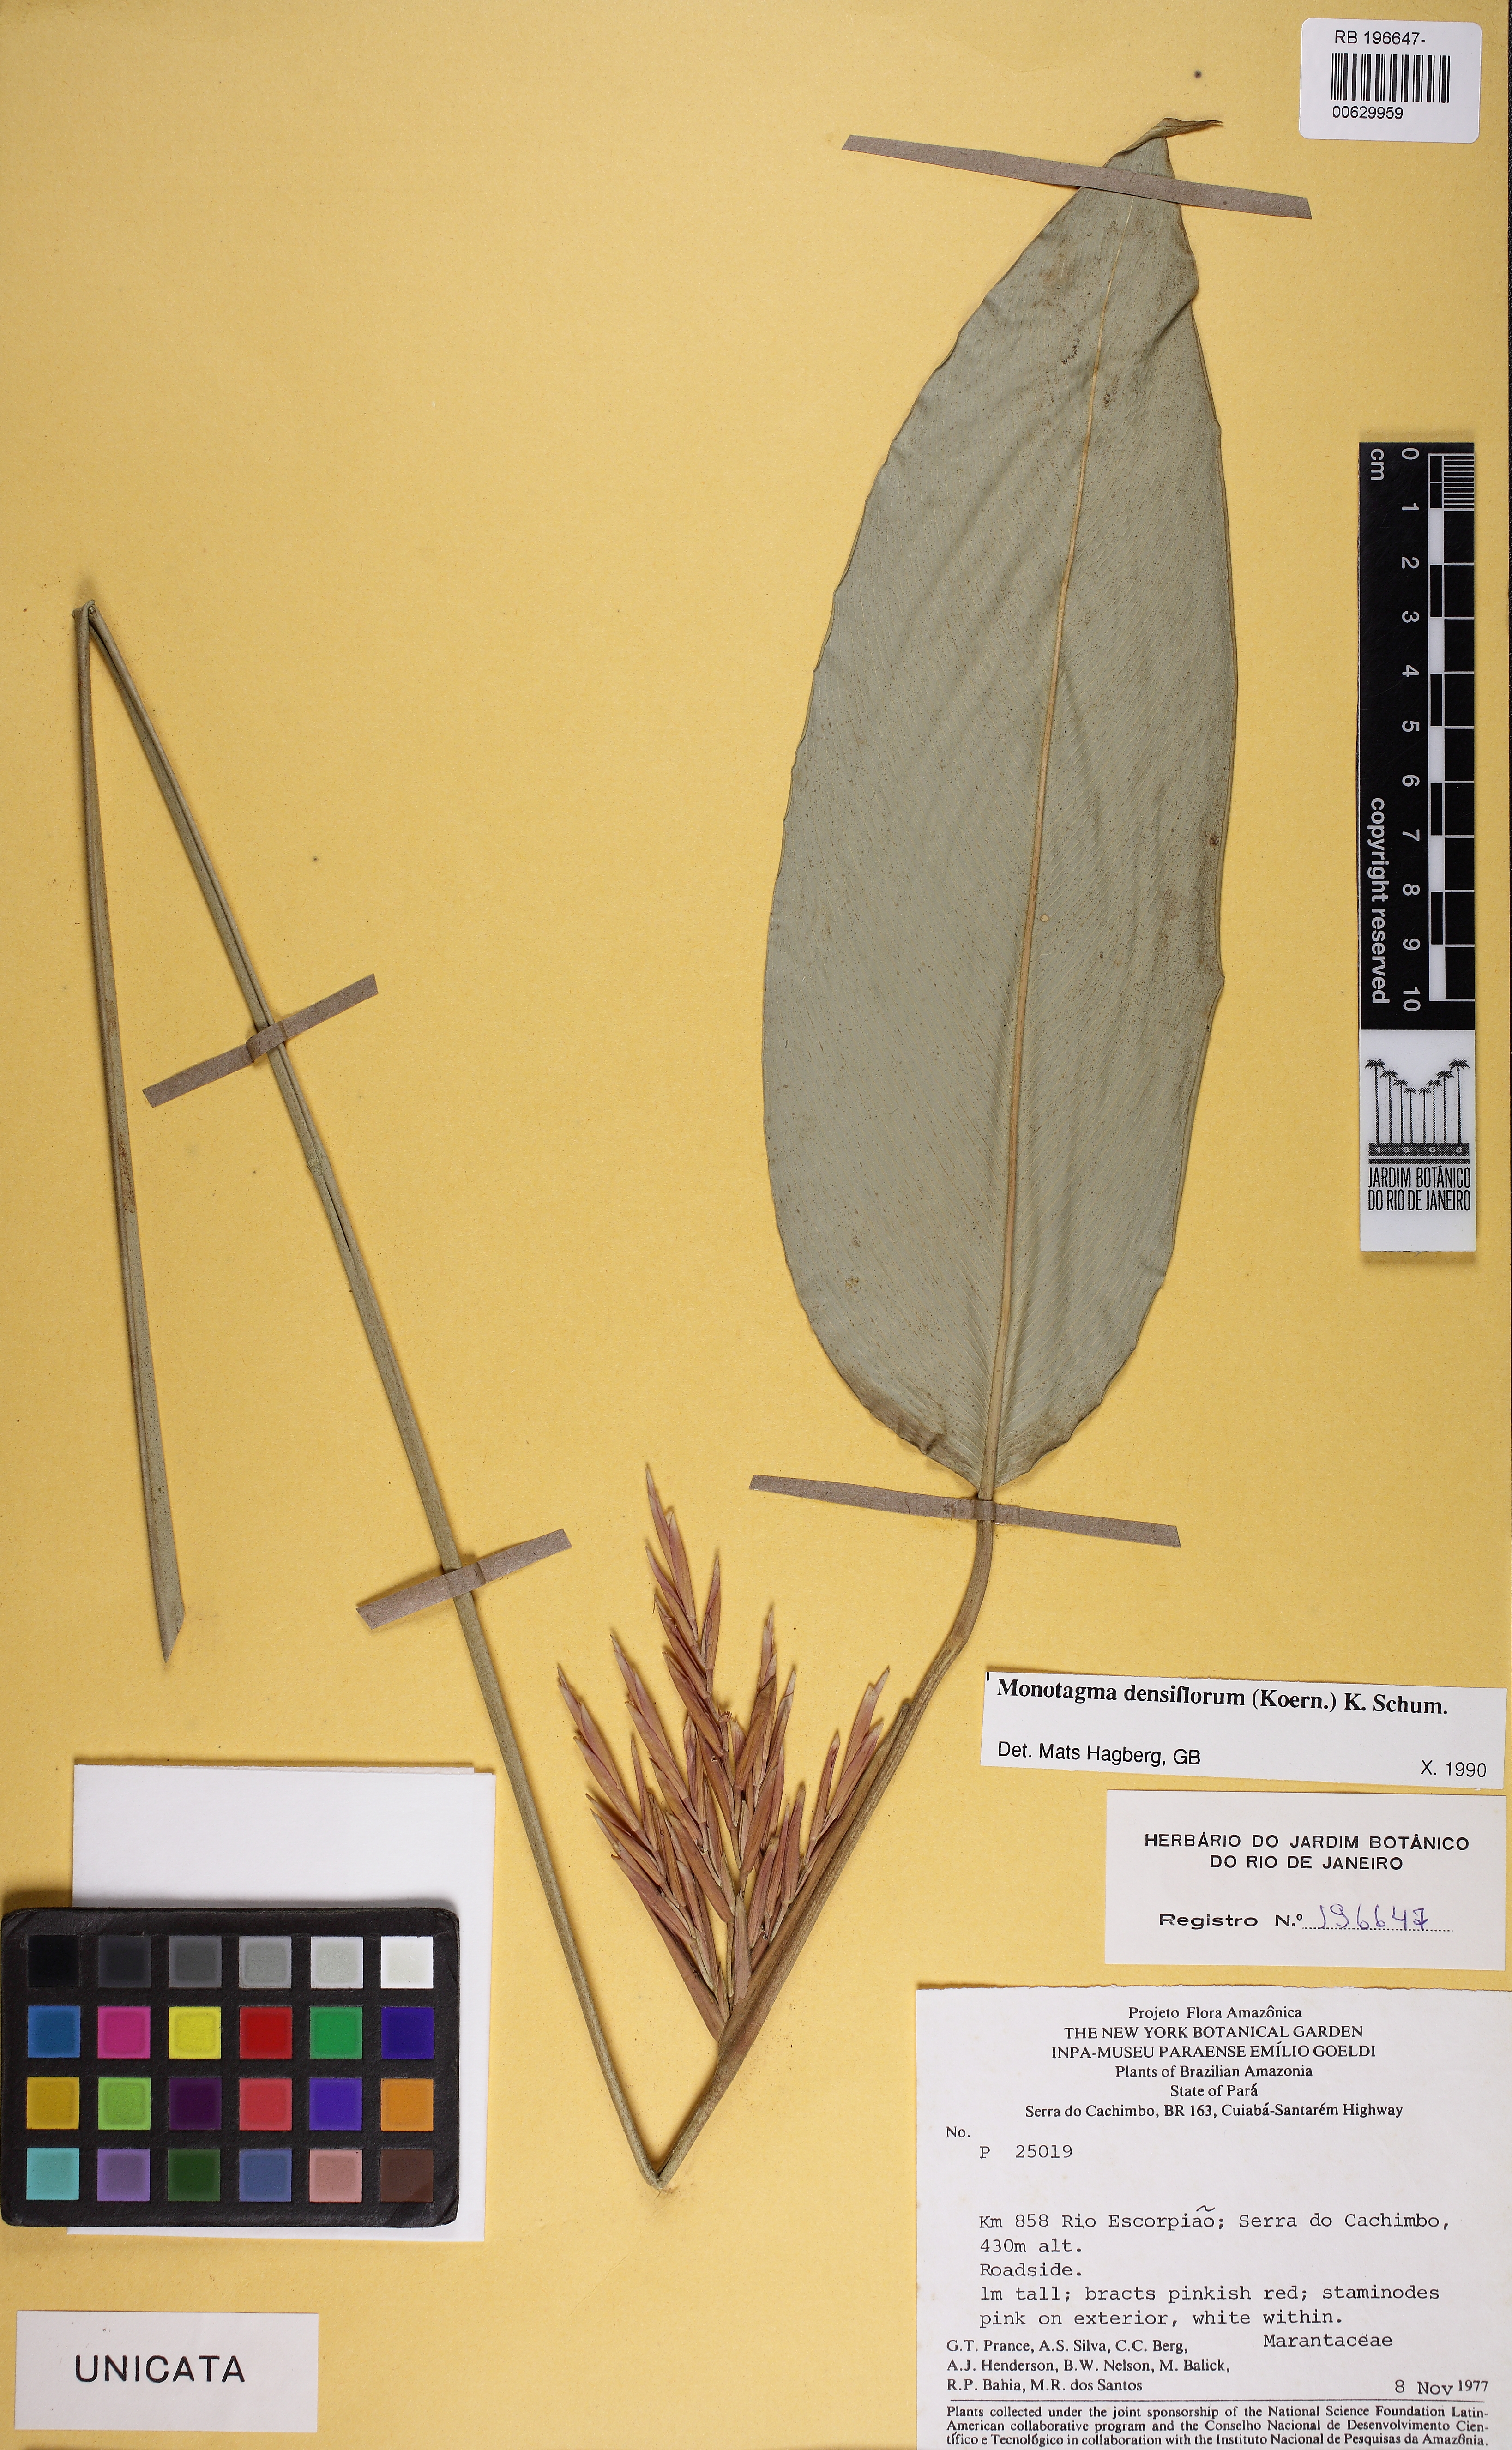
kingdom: Plantae
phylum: Tracheophyta
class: Liliopsida
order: Zingiberales
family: Marantaceae
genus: Monotagma
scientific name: Monotagma densiflorum
